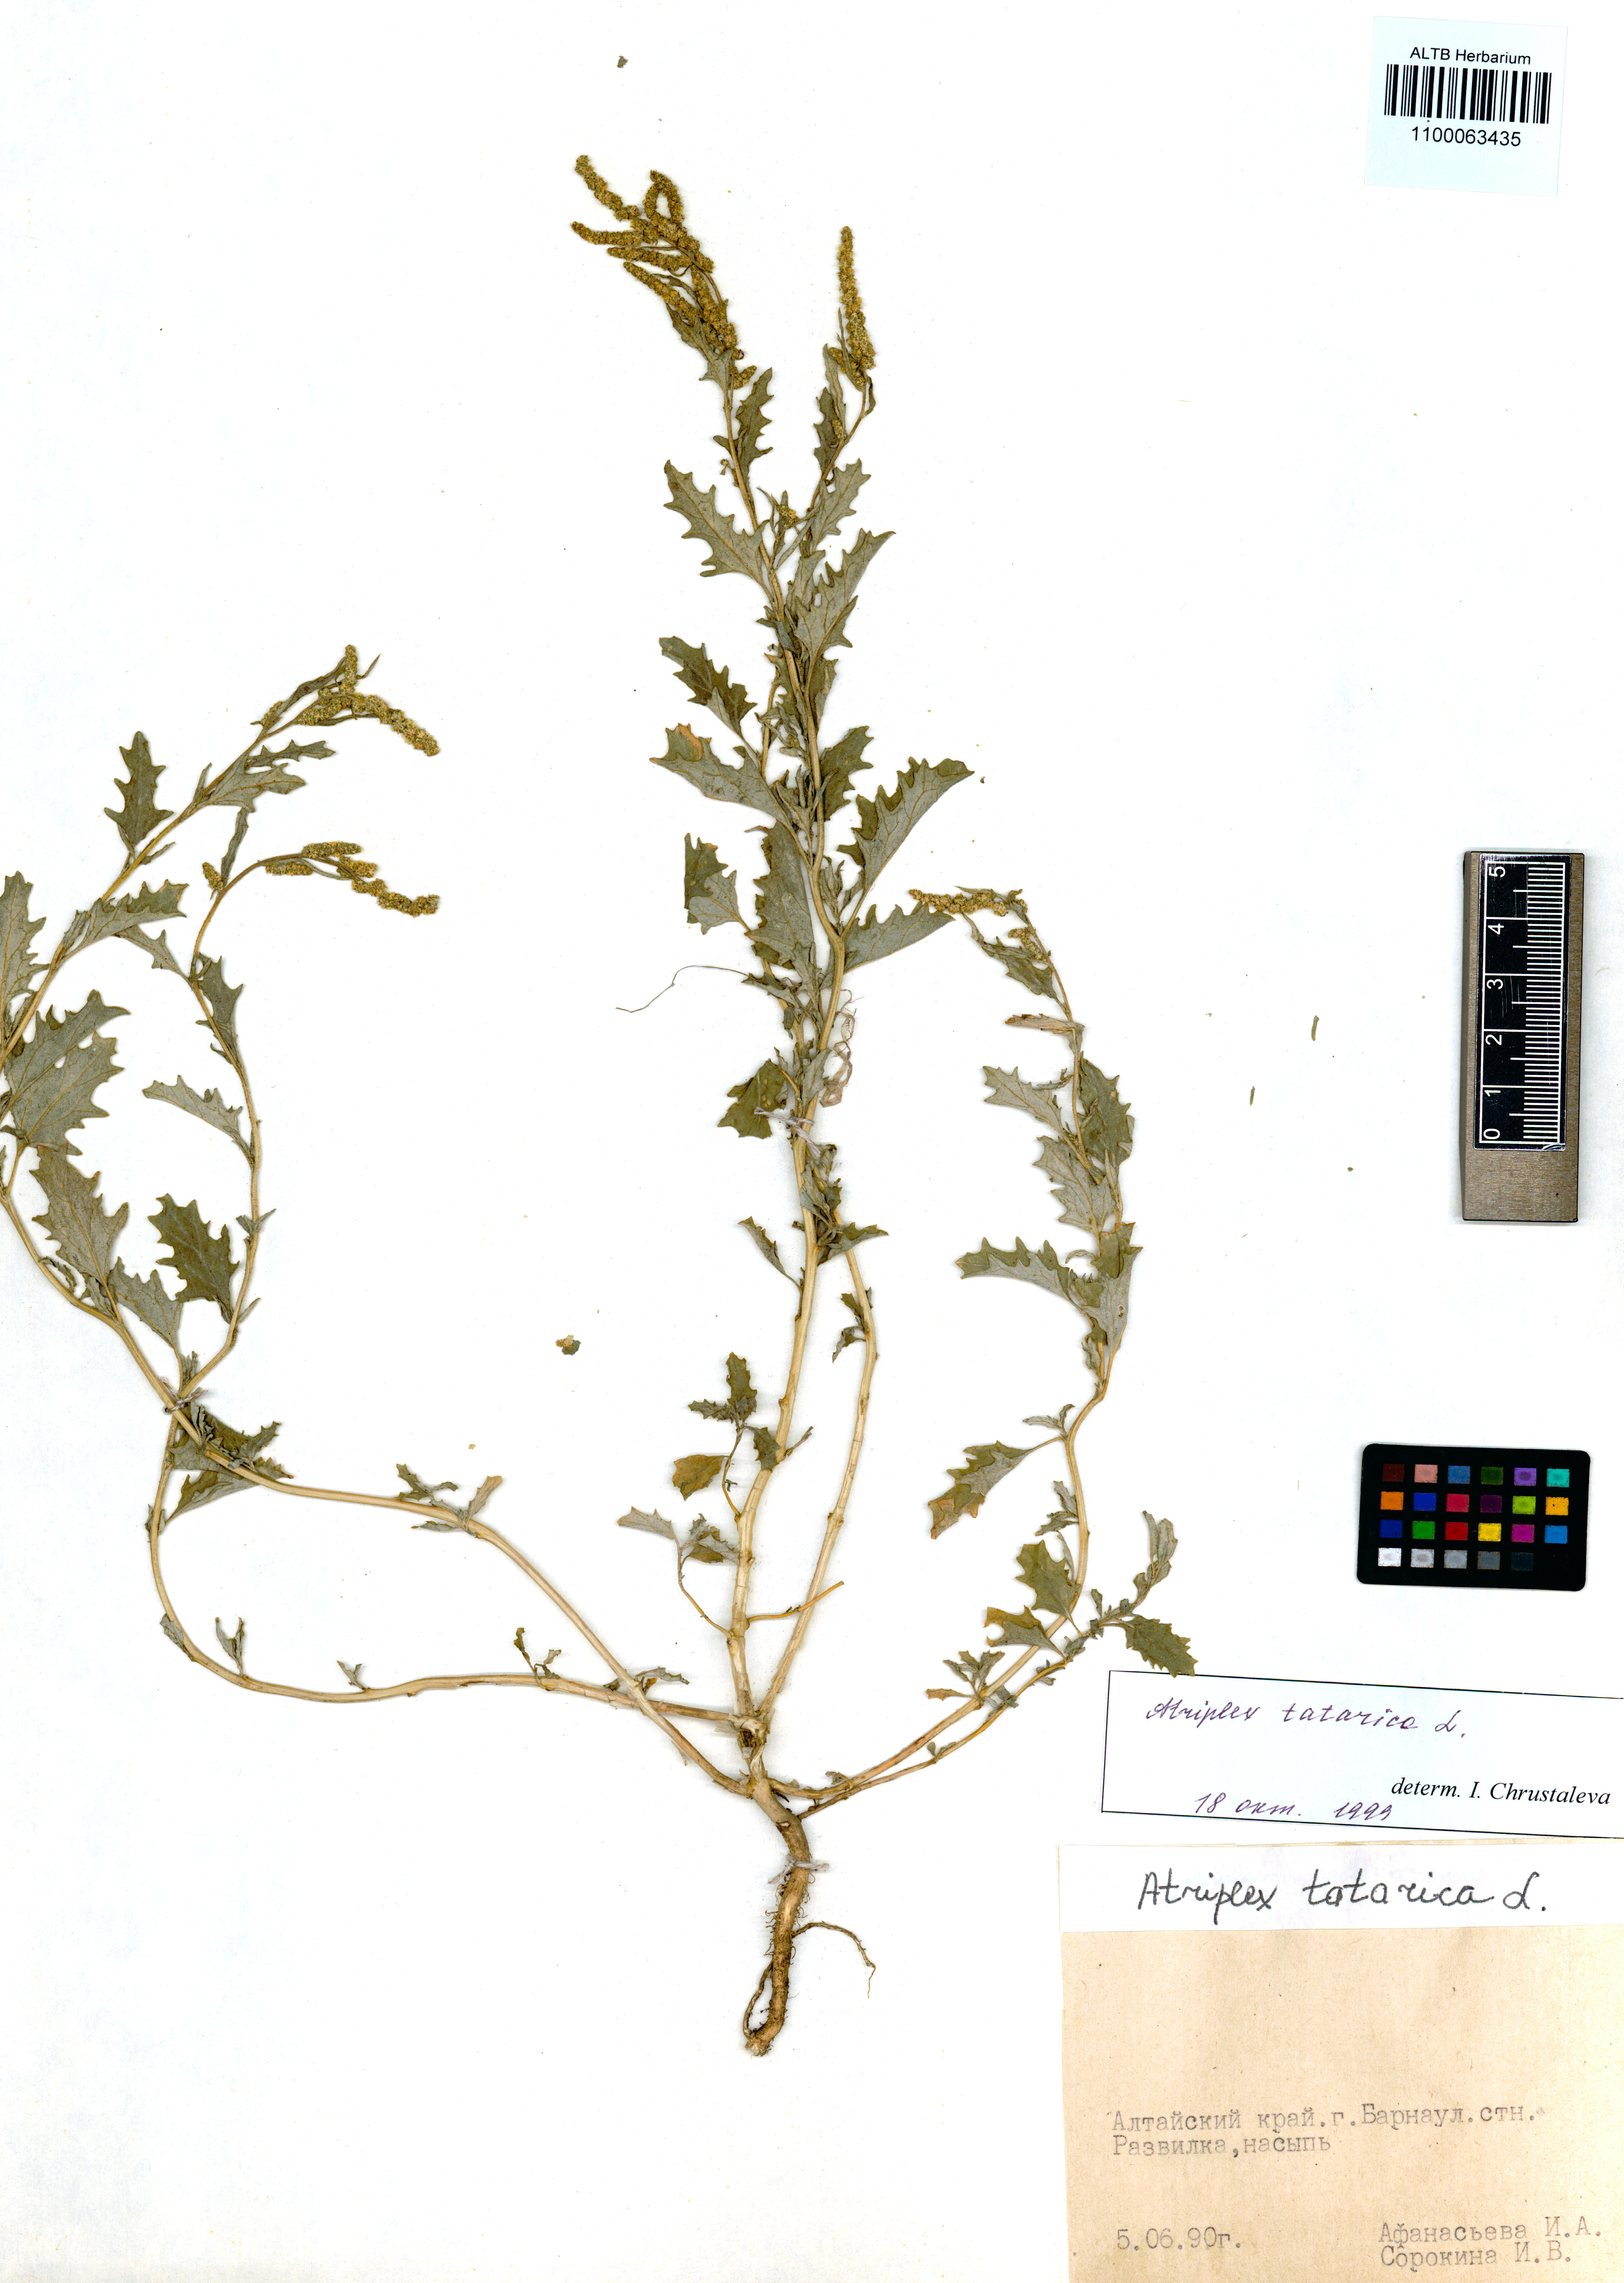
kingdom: Plantae
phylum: Tracheophyta
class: Magnoliopsida
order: Caryophyllales
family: Amaranthaceae
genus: Atriplex
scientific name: Atriplex tatarica
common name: Tatarian orache
